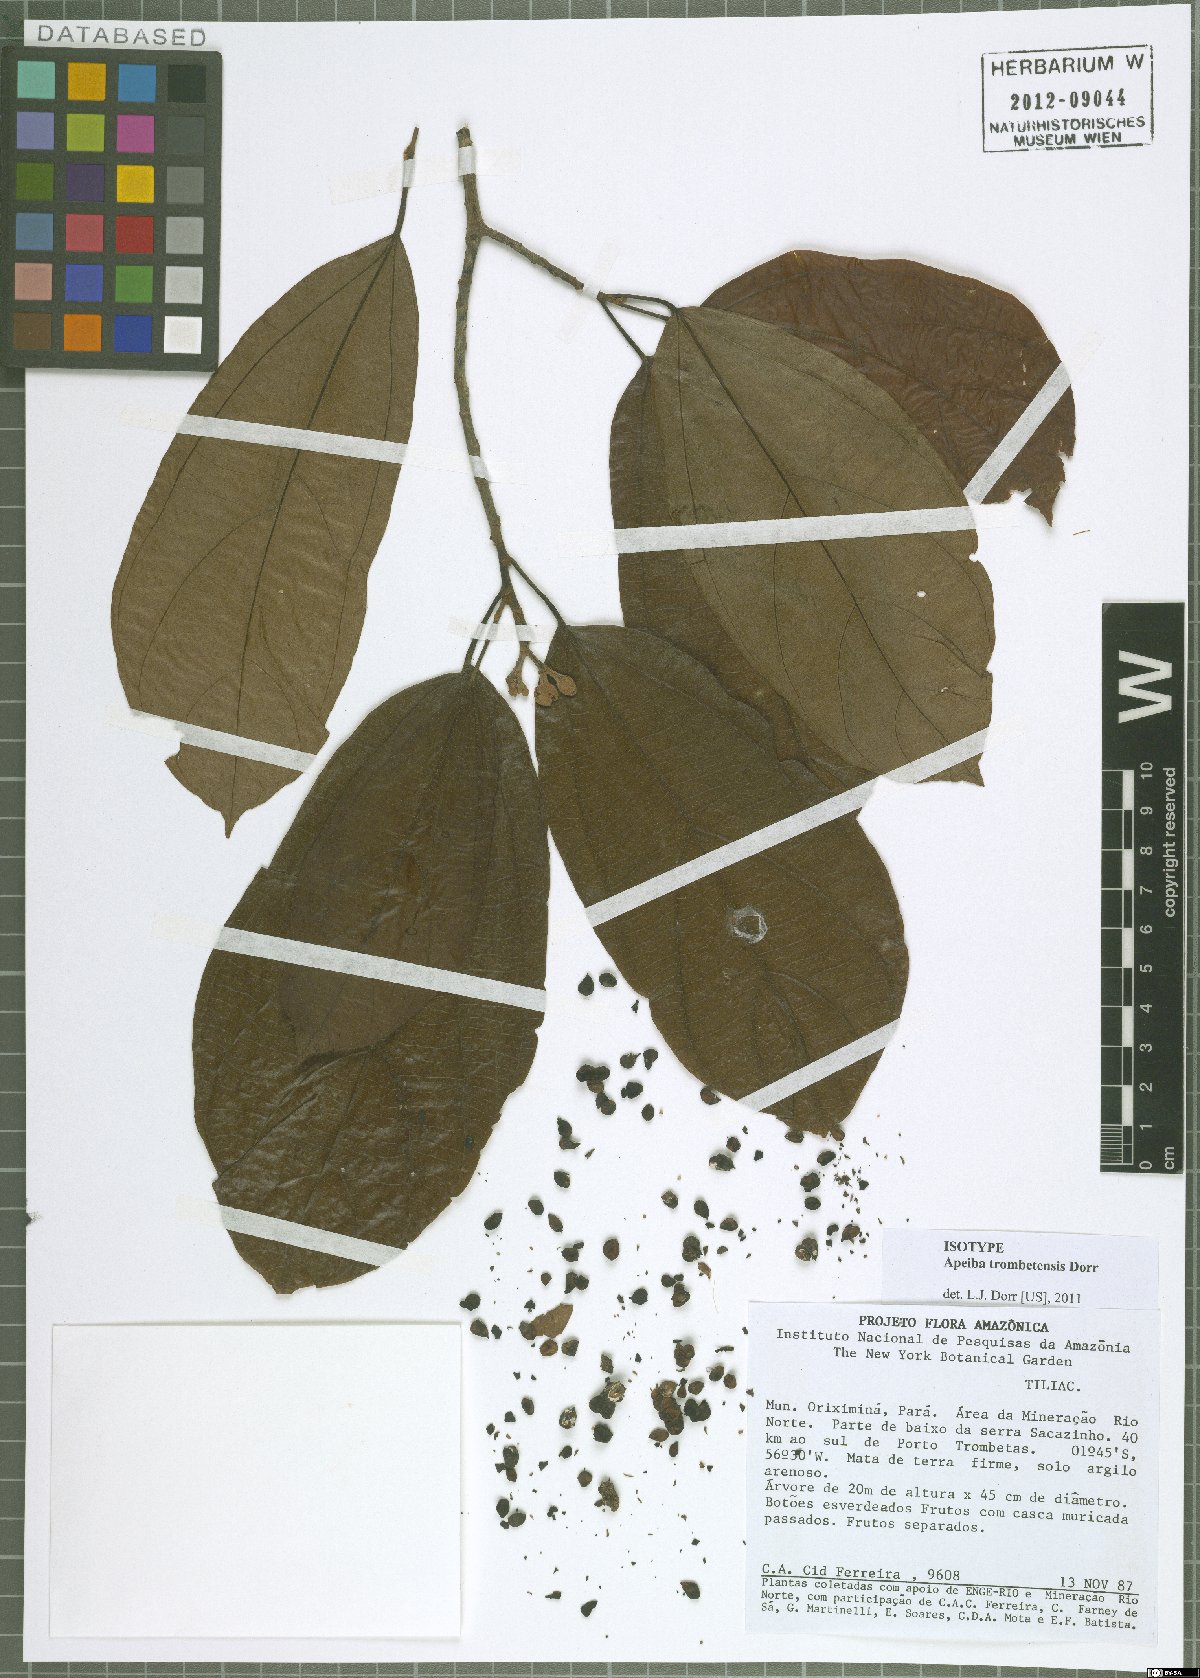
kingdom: Plantae
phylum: Tracheophyta
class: Magnoliopsida
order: Malvales
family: Malvaceae
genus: Apeiba
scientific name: Apeiba trombetensis
